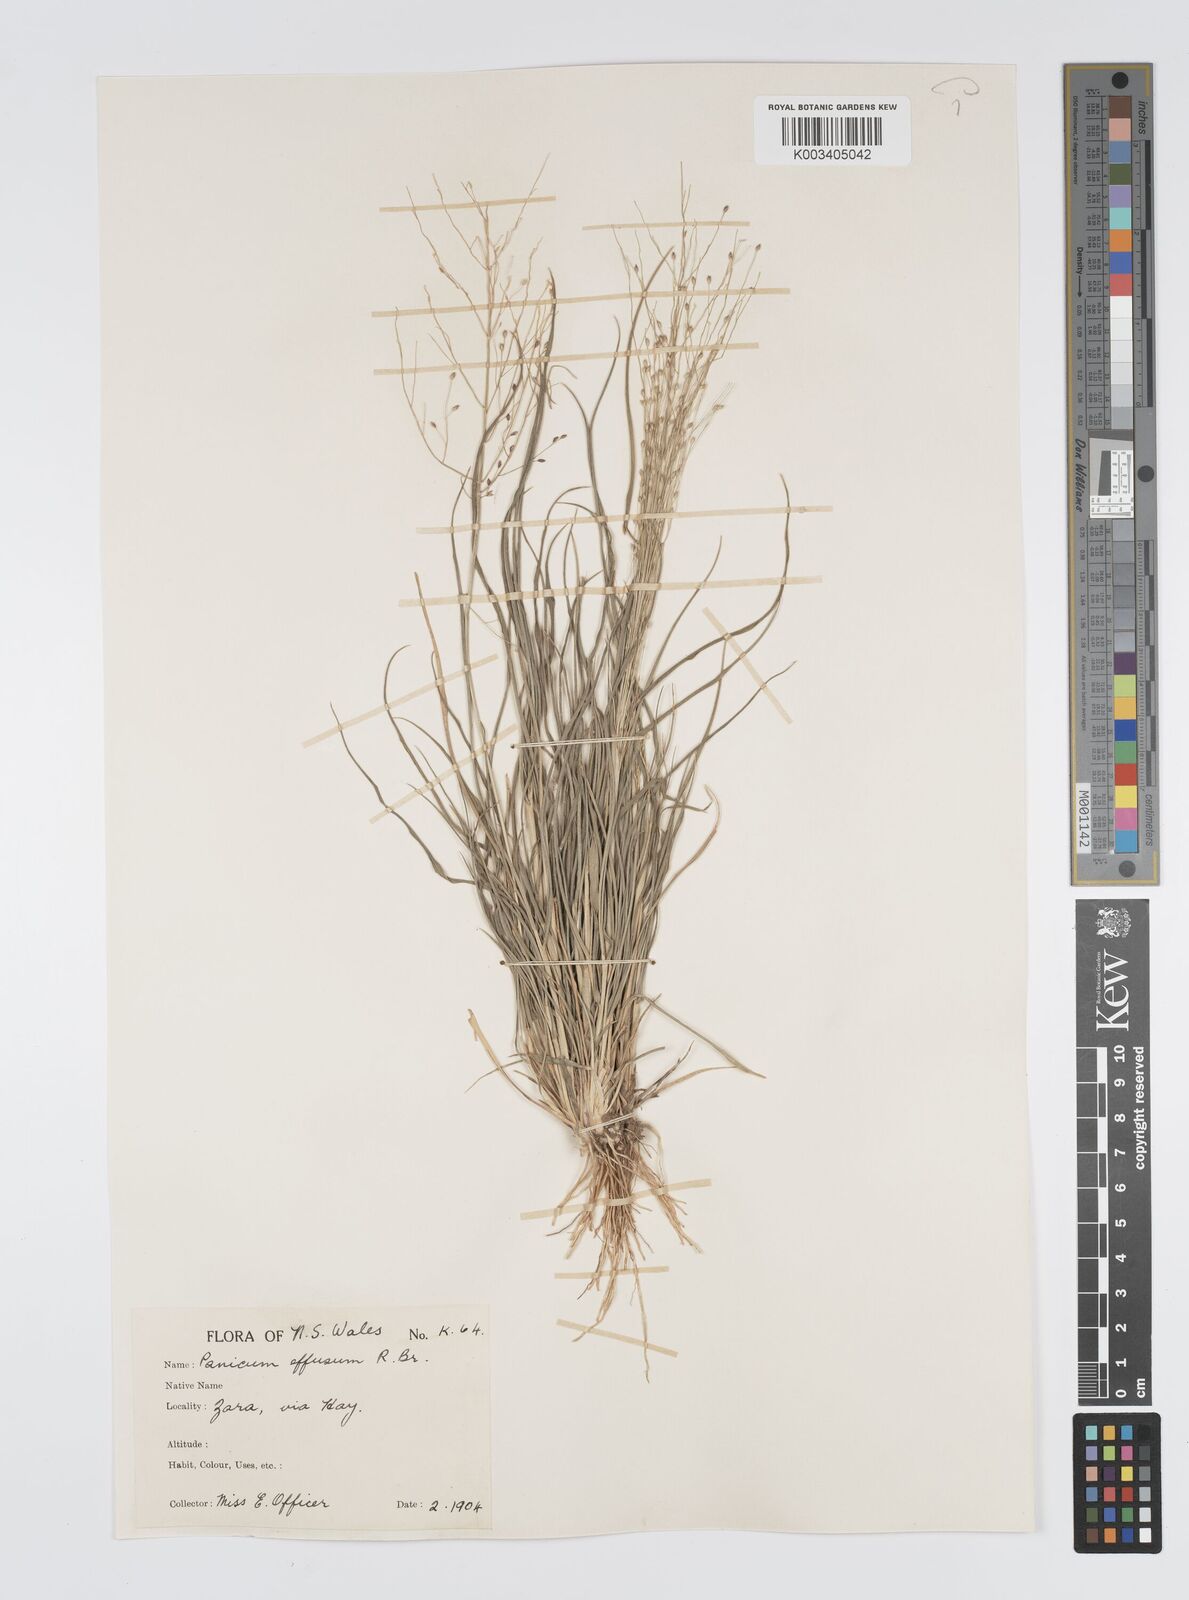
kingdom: Plantae
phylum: Tracheophyta
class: Liliopsida
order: Poales
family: Poaceae
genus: Panicum
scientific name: Panicum effusum
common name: Hairy panic grass
